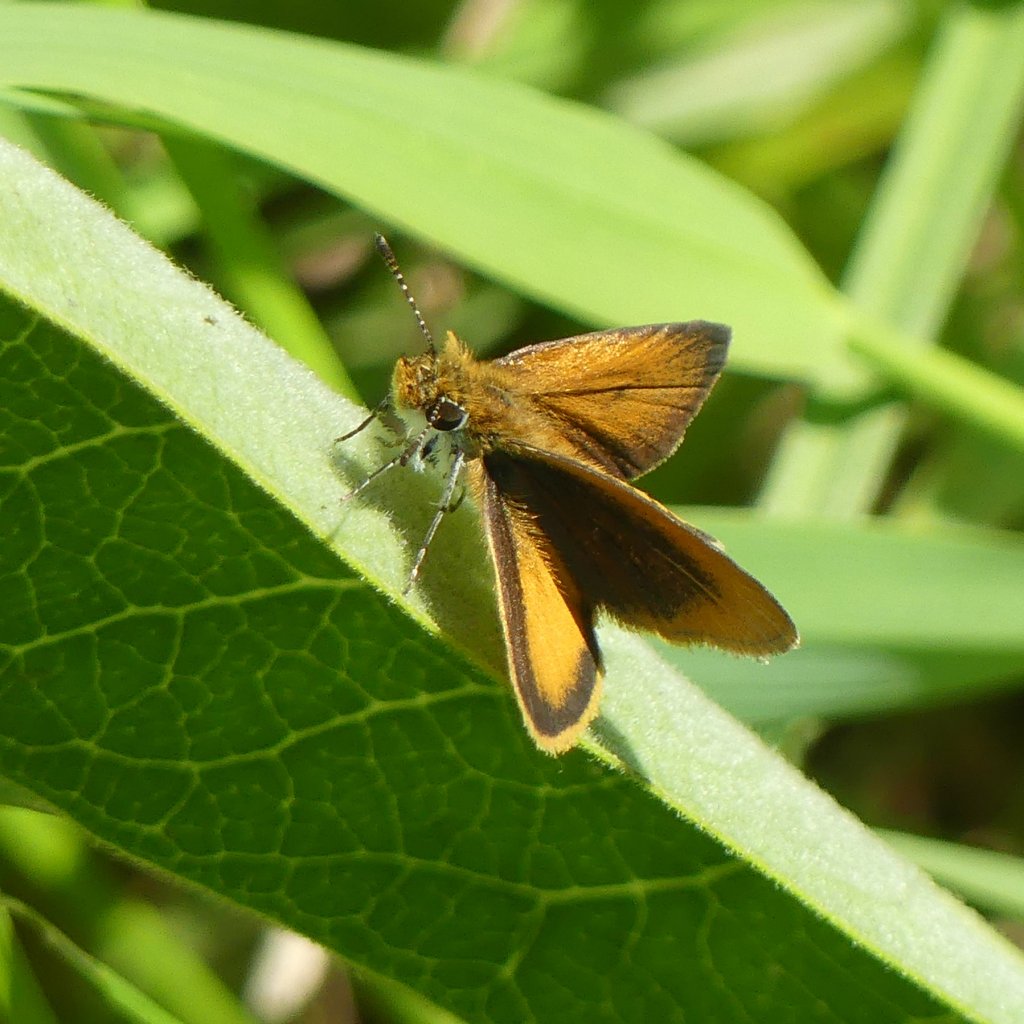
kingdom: Animalia
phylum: Arthropoda
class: Insecta
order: Lepidoptera
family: Hesperiidae
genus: Ancyloxypha
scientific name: Ancyloxypha numitor
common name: Least Skipper
